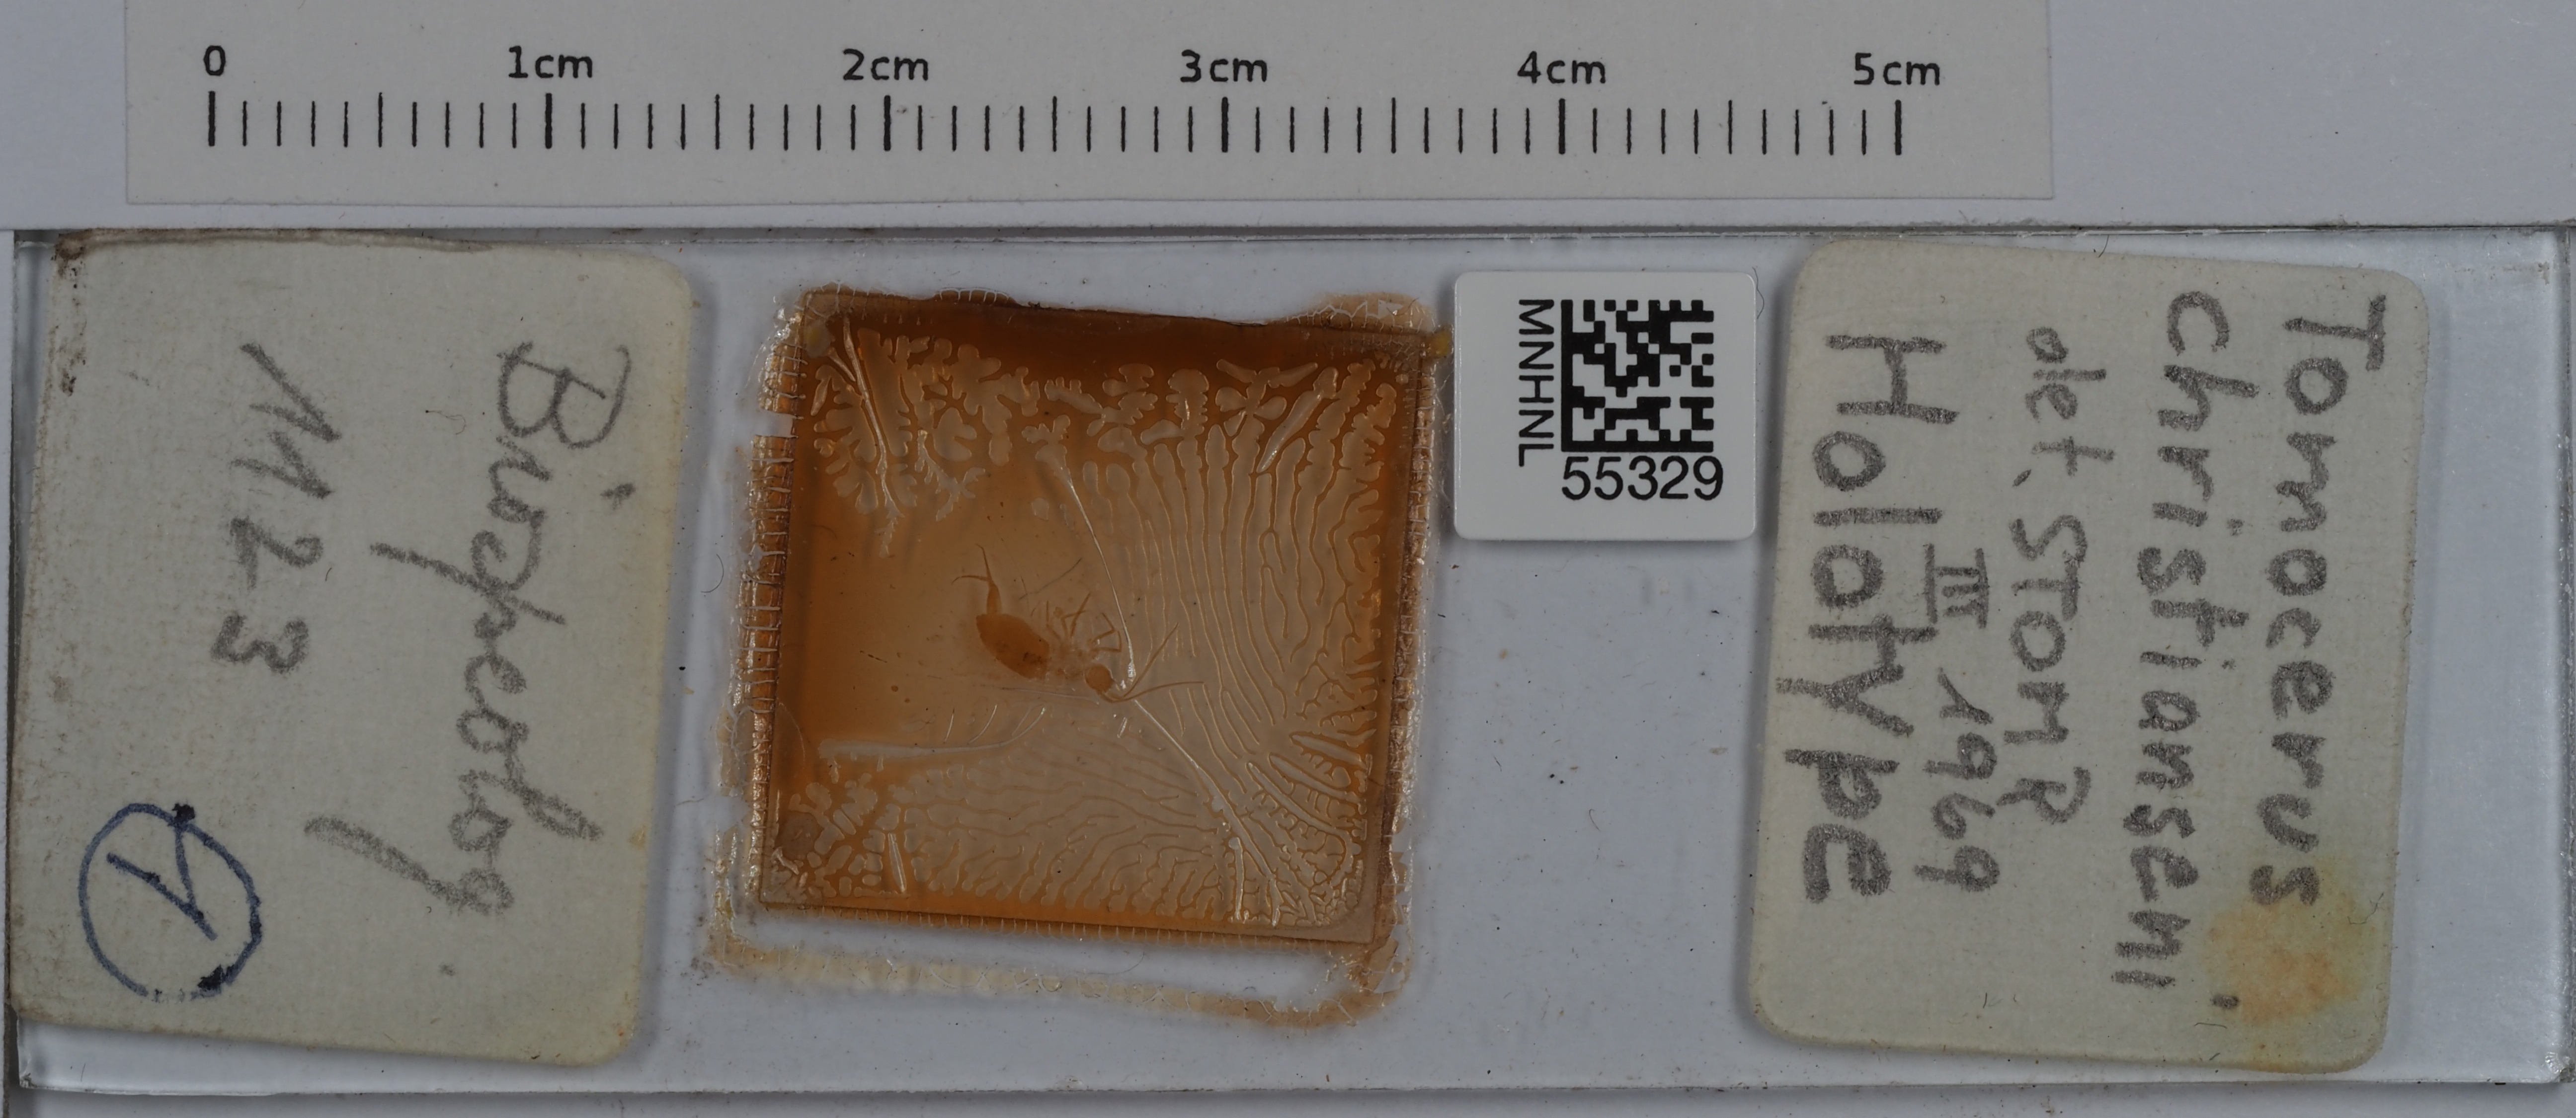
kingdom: Animalia
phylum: Arthropoda
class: Collembola
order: Entomobryomorpha
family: Tomoceridae
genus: Tomocerus
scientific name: Tomocerus christianseni
